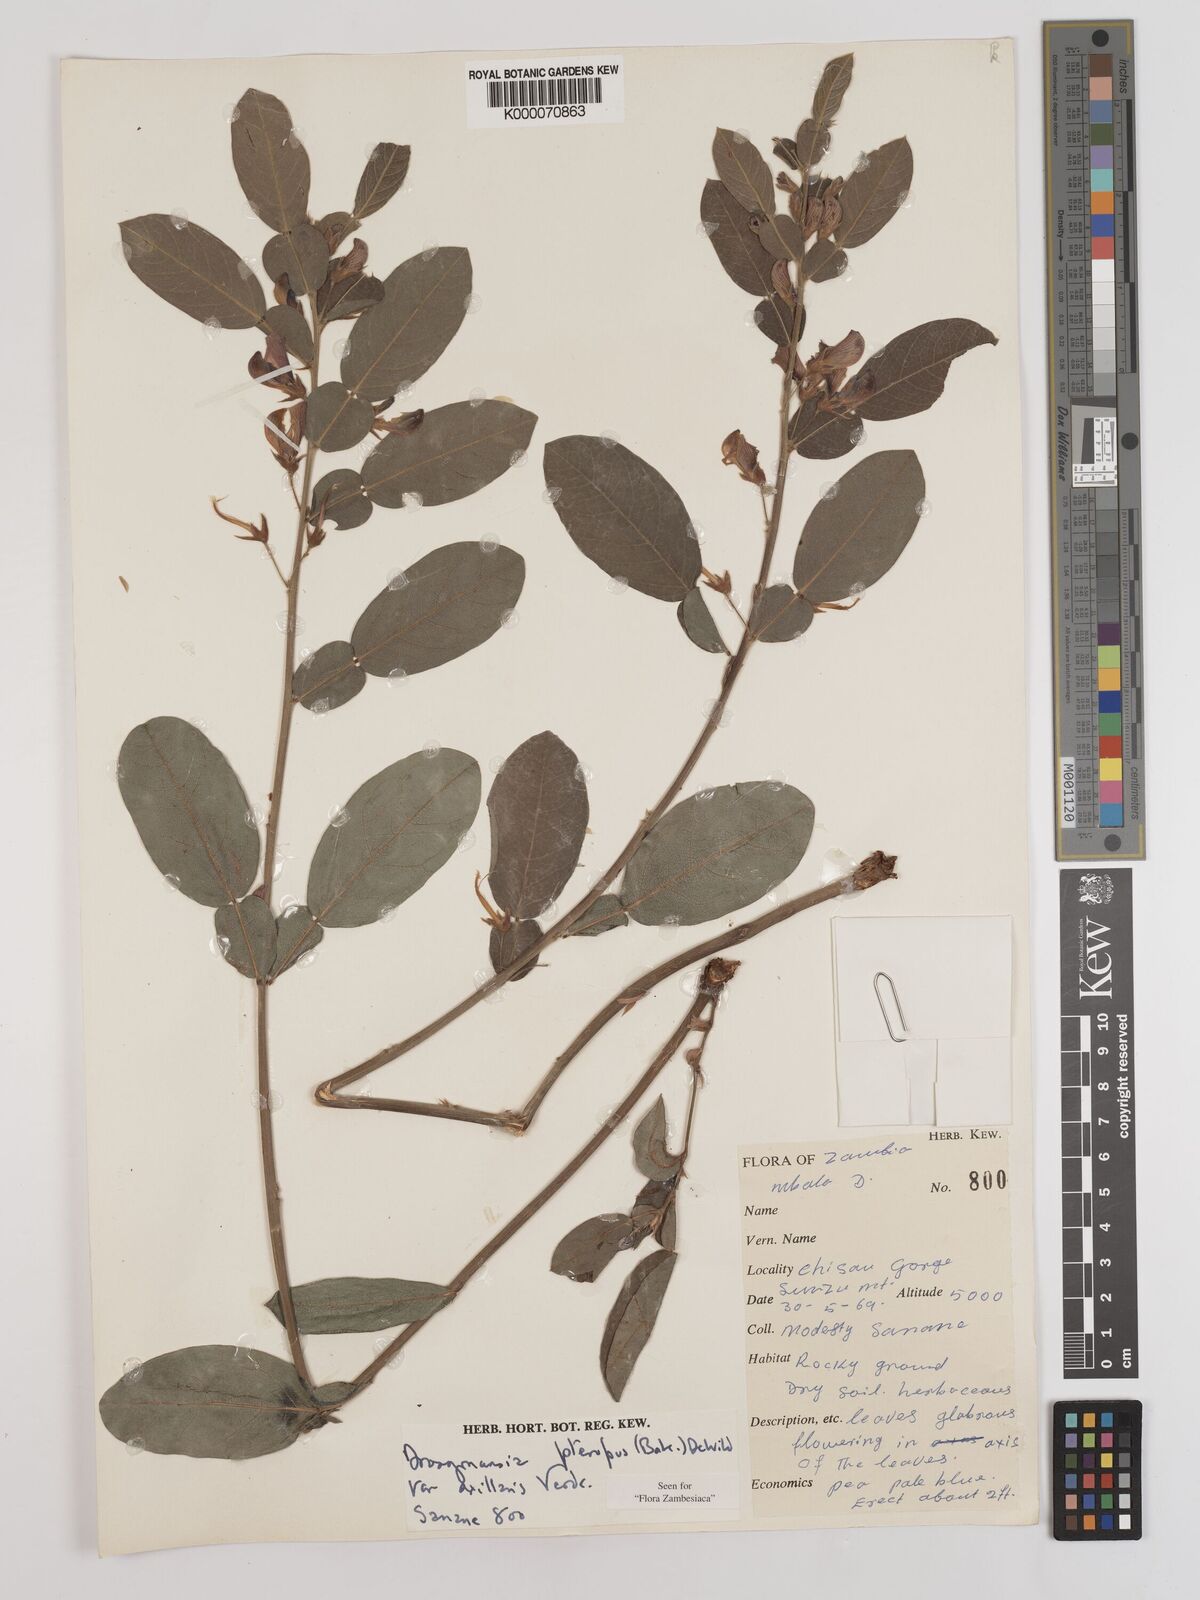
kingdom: Plantae
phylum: Tracheophyta
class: Magnoliopsida
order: Fabales
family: Fabaceae
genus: Droogmansia
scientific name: Droogmansia pteropus
